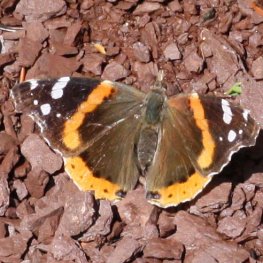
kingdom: Animalia
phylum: Arthropoda
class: Insecta
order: Lepidoptera
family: Nymphalidae
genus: Vanessa
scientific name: Vanessa atalanta
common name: Red Admiral
